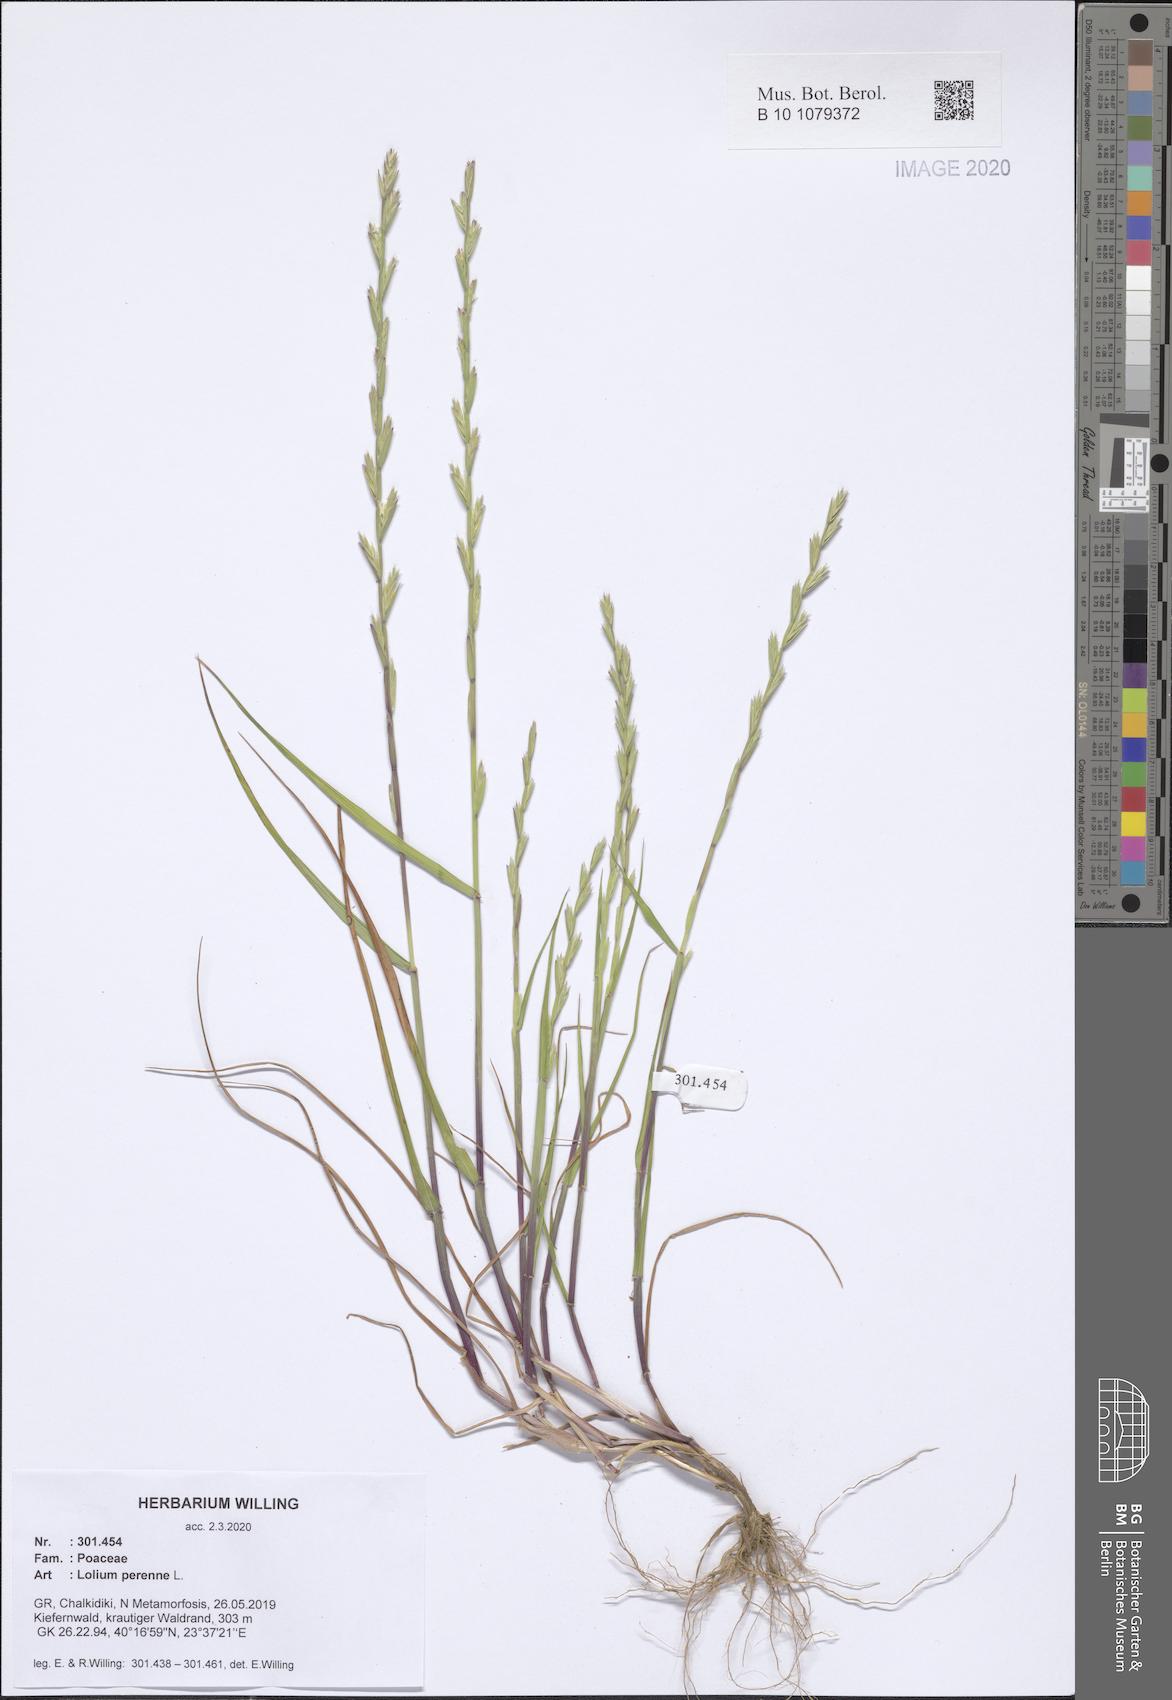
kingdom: Plantae
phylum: Tracheophyta
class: Liliopsida
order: Poales
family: Poaceae
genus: Lolium
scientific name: Lolium perenne
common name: Perennial ryegrass
